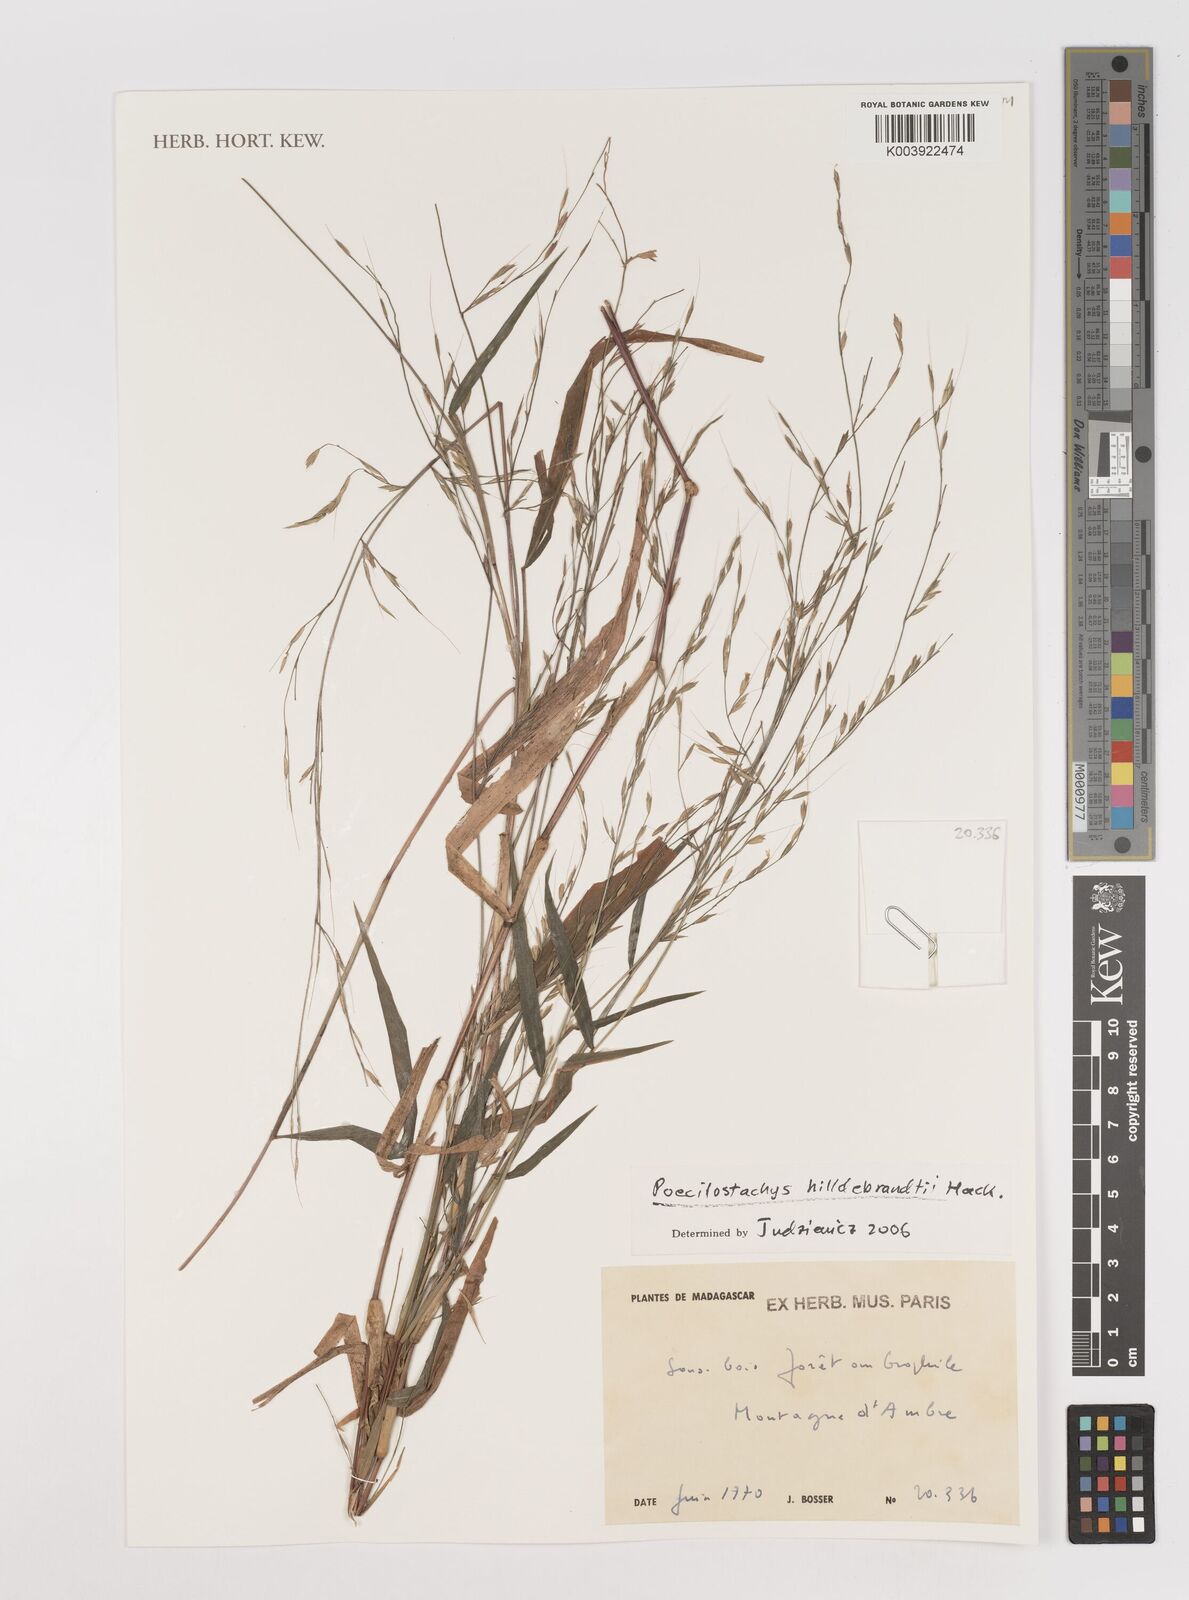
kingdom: Plantae
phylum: Tracheophyta
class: Liliopsida
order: Poales
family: Poaceae
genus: Poecilostachys
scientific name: Poecilostachys hildebrandtii
